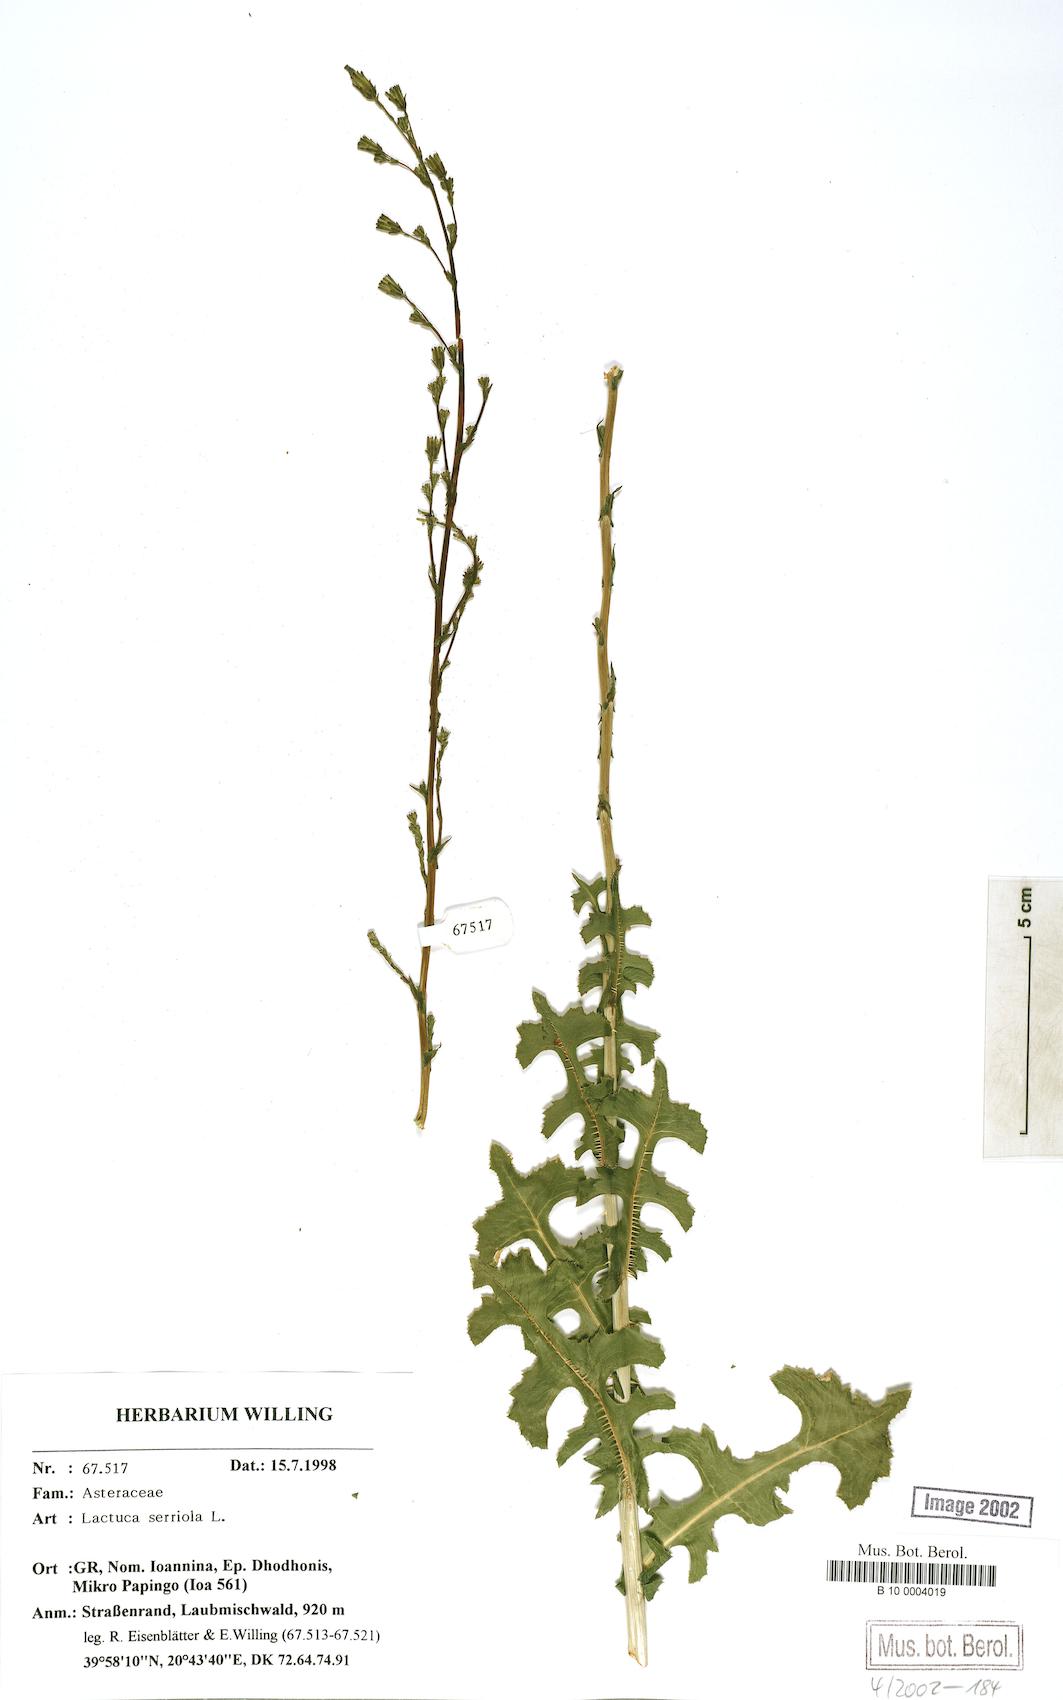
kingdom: Plantae
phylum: Tracheophyta
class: Magnoliopsida
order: Asterales
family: Asteraceae
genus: Lactuca
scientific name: Lactuca serriola
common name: Prickly lettuce
